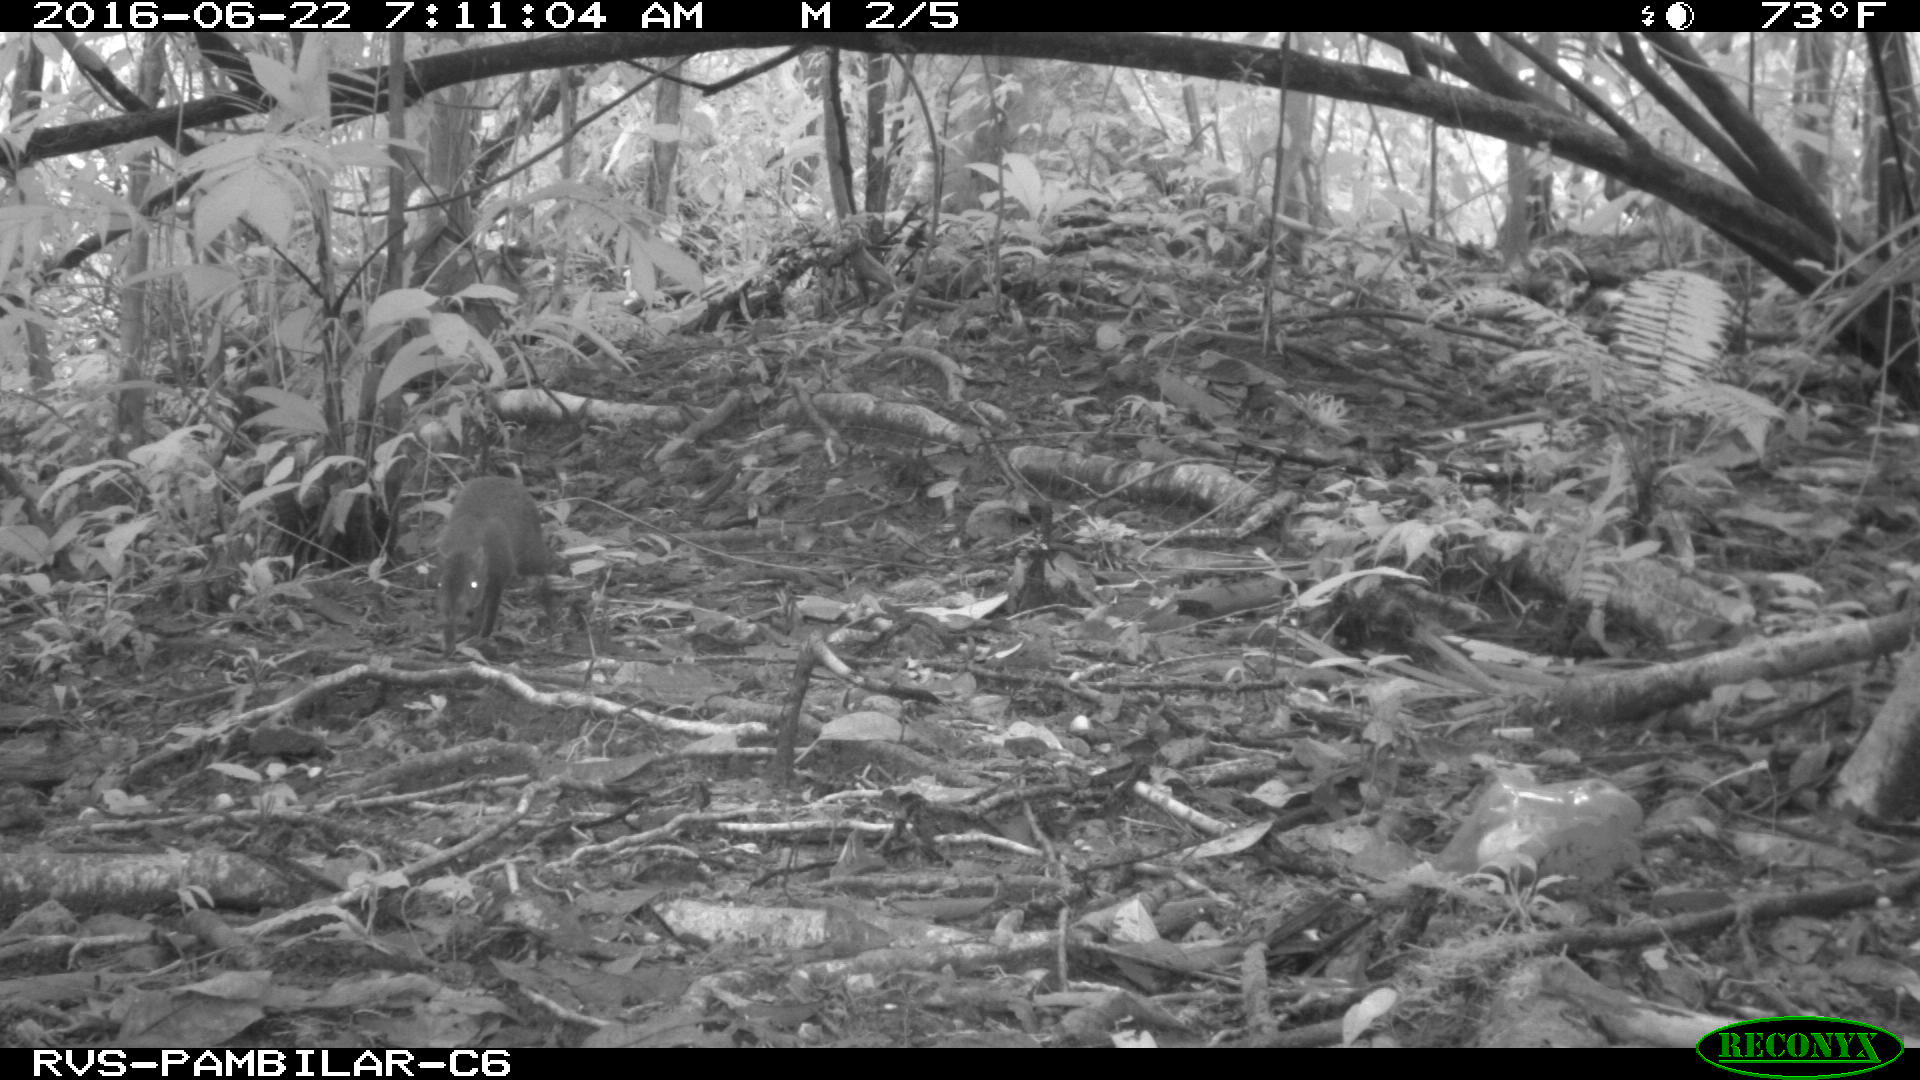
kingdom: Animalia
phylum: Chordata
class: Mammalia
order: Rodentia
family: Dasyproctidae
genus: Dasyprocta
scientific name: Dasyprocta punctata
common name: Central american agouti
